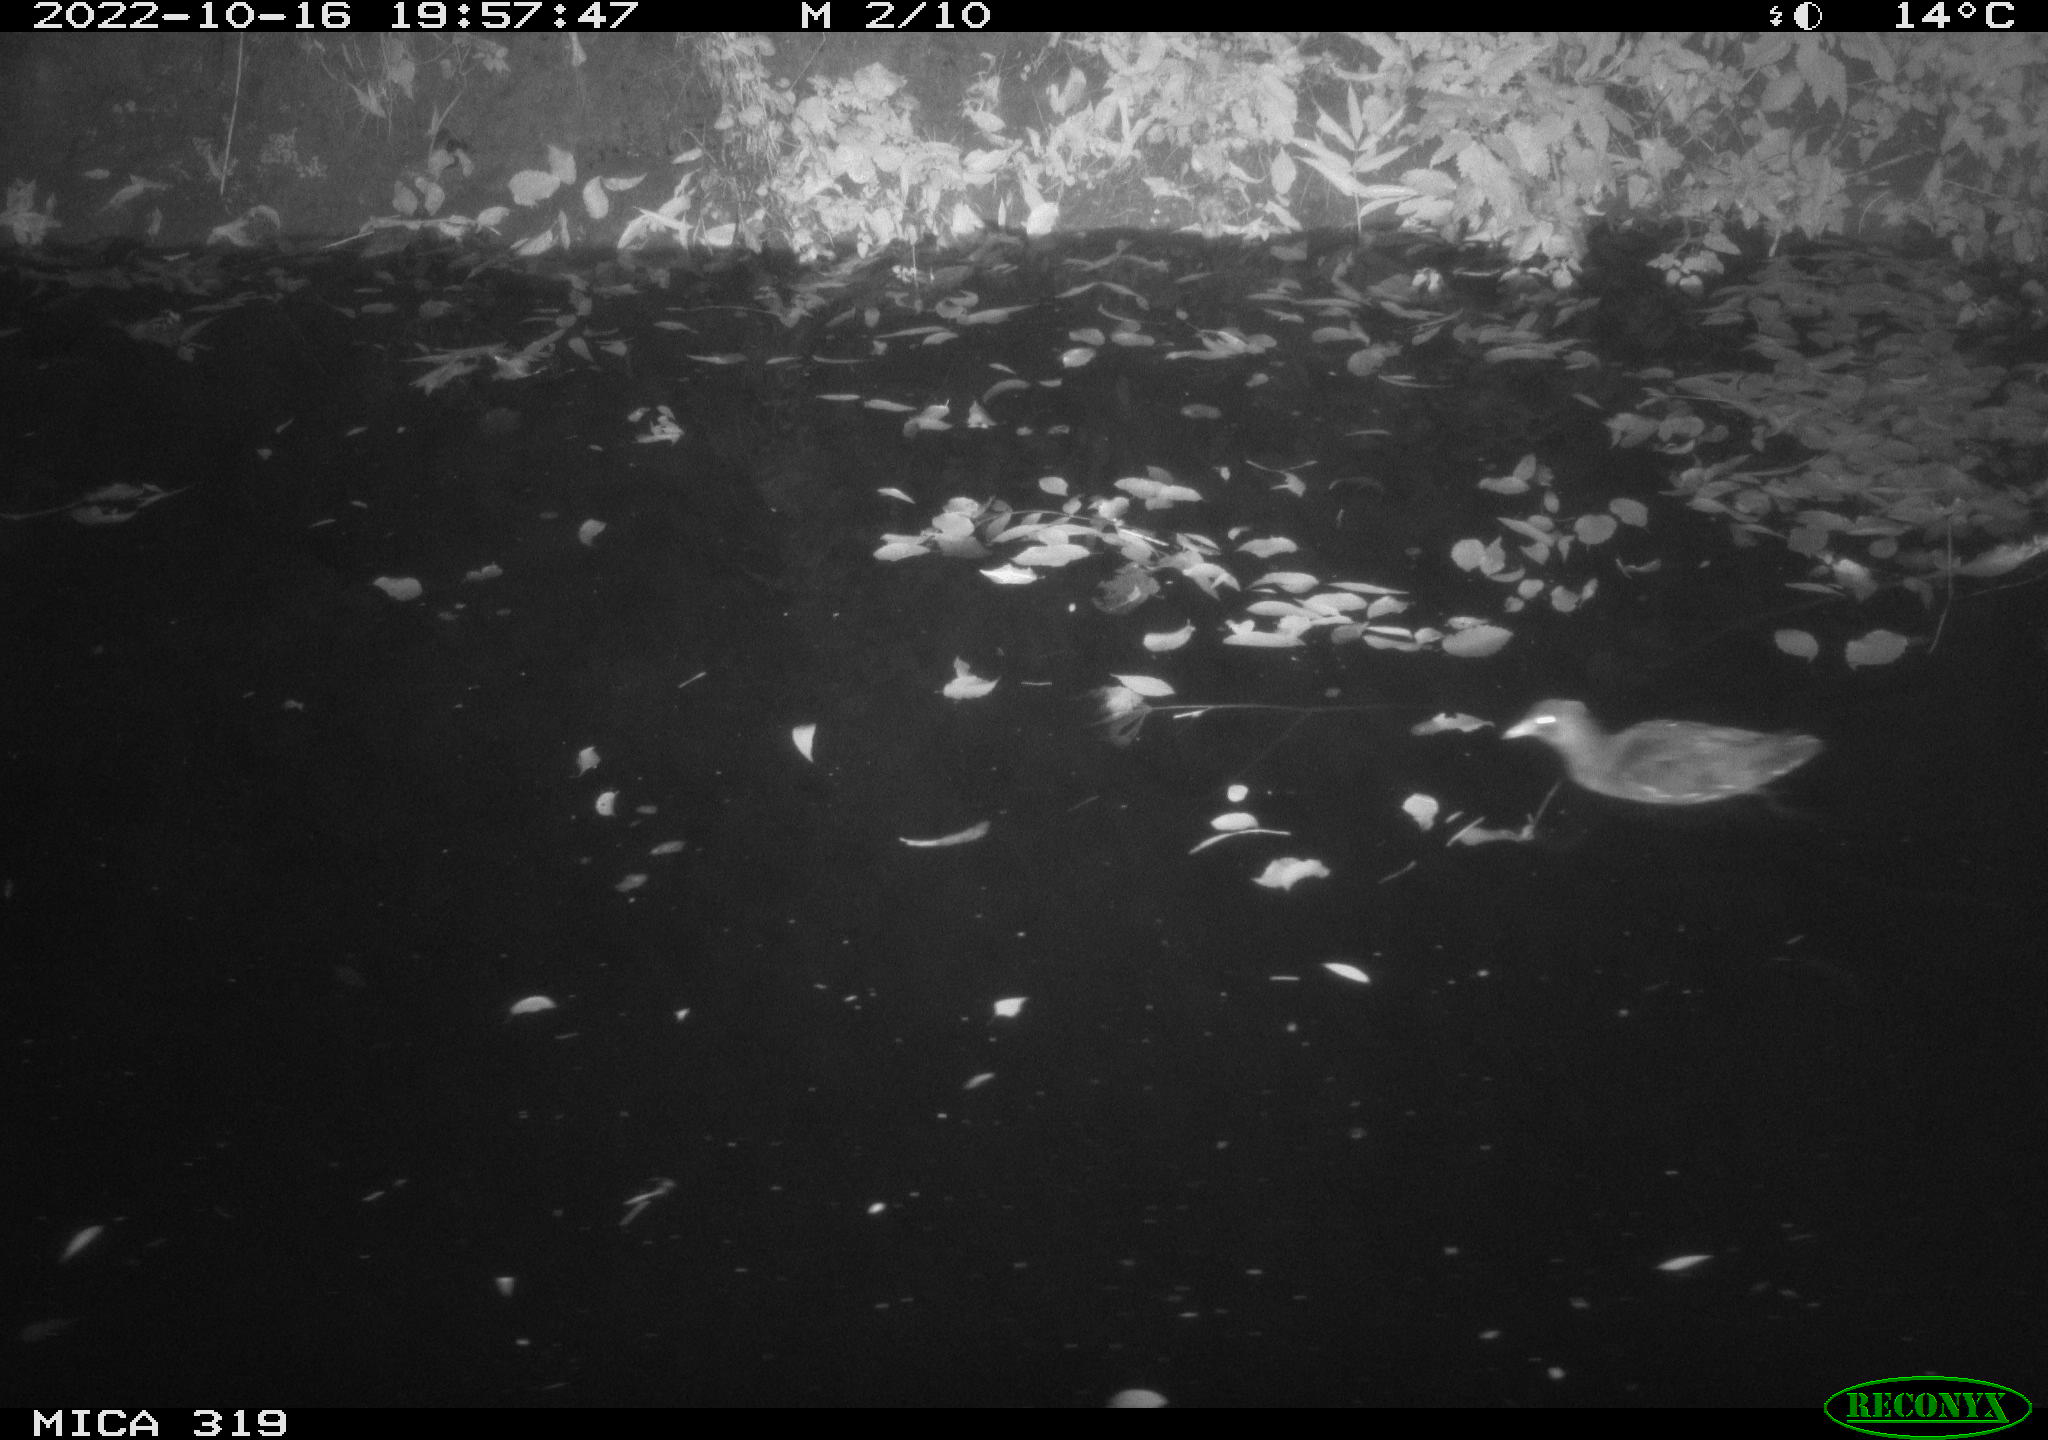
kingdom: Animalia
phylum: Chordata
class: Aves
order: Anseriformes
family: Anatidae
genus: Anas
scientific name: Anas
